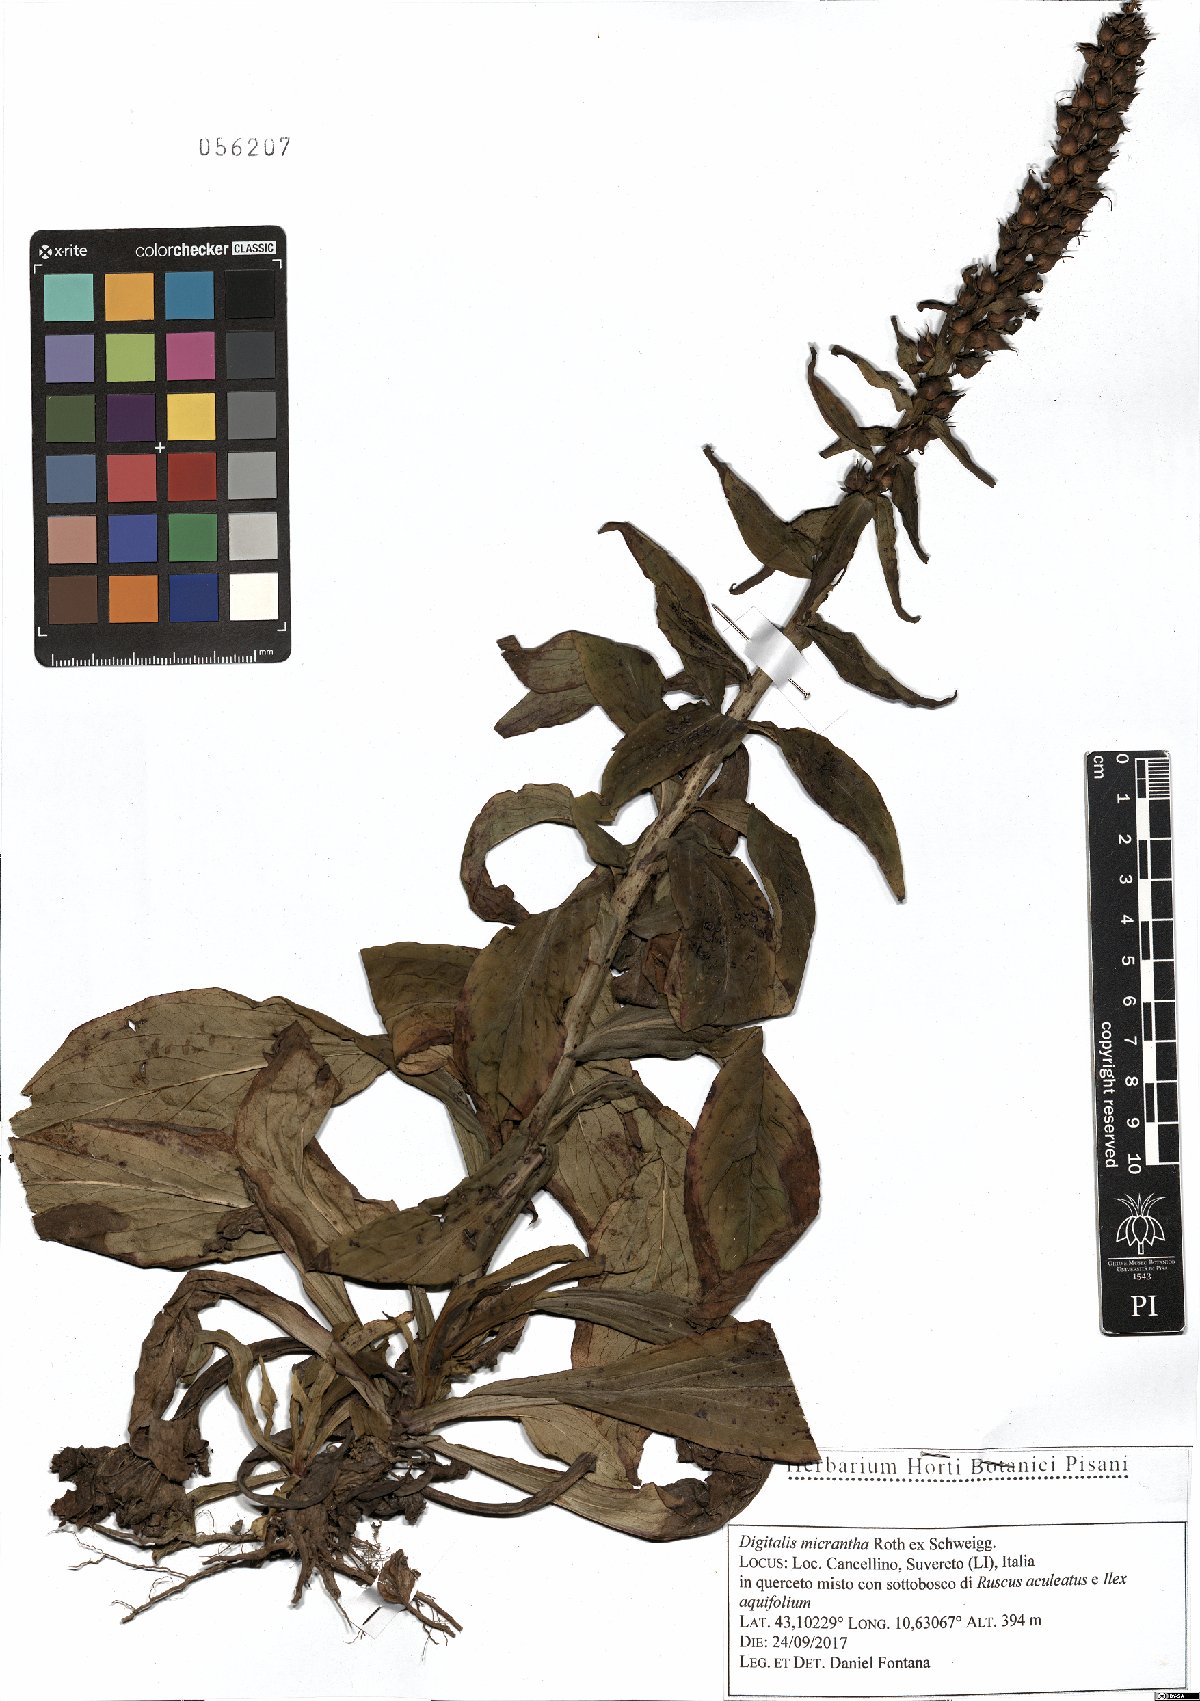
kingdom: Plantae
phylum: Tracheophyta
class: Magnoliopsida
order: Lamiales
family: Plantaginaceae
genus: Digitalis
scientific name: Digitalis lutea
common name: Straw foxglove
